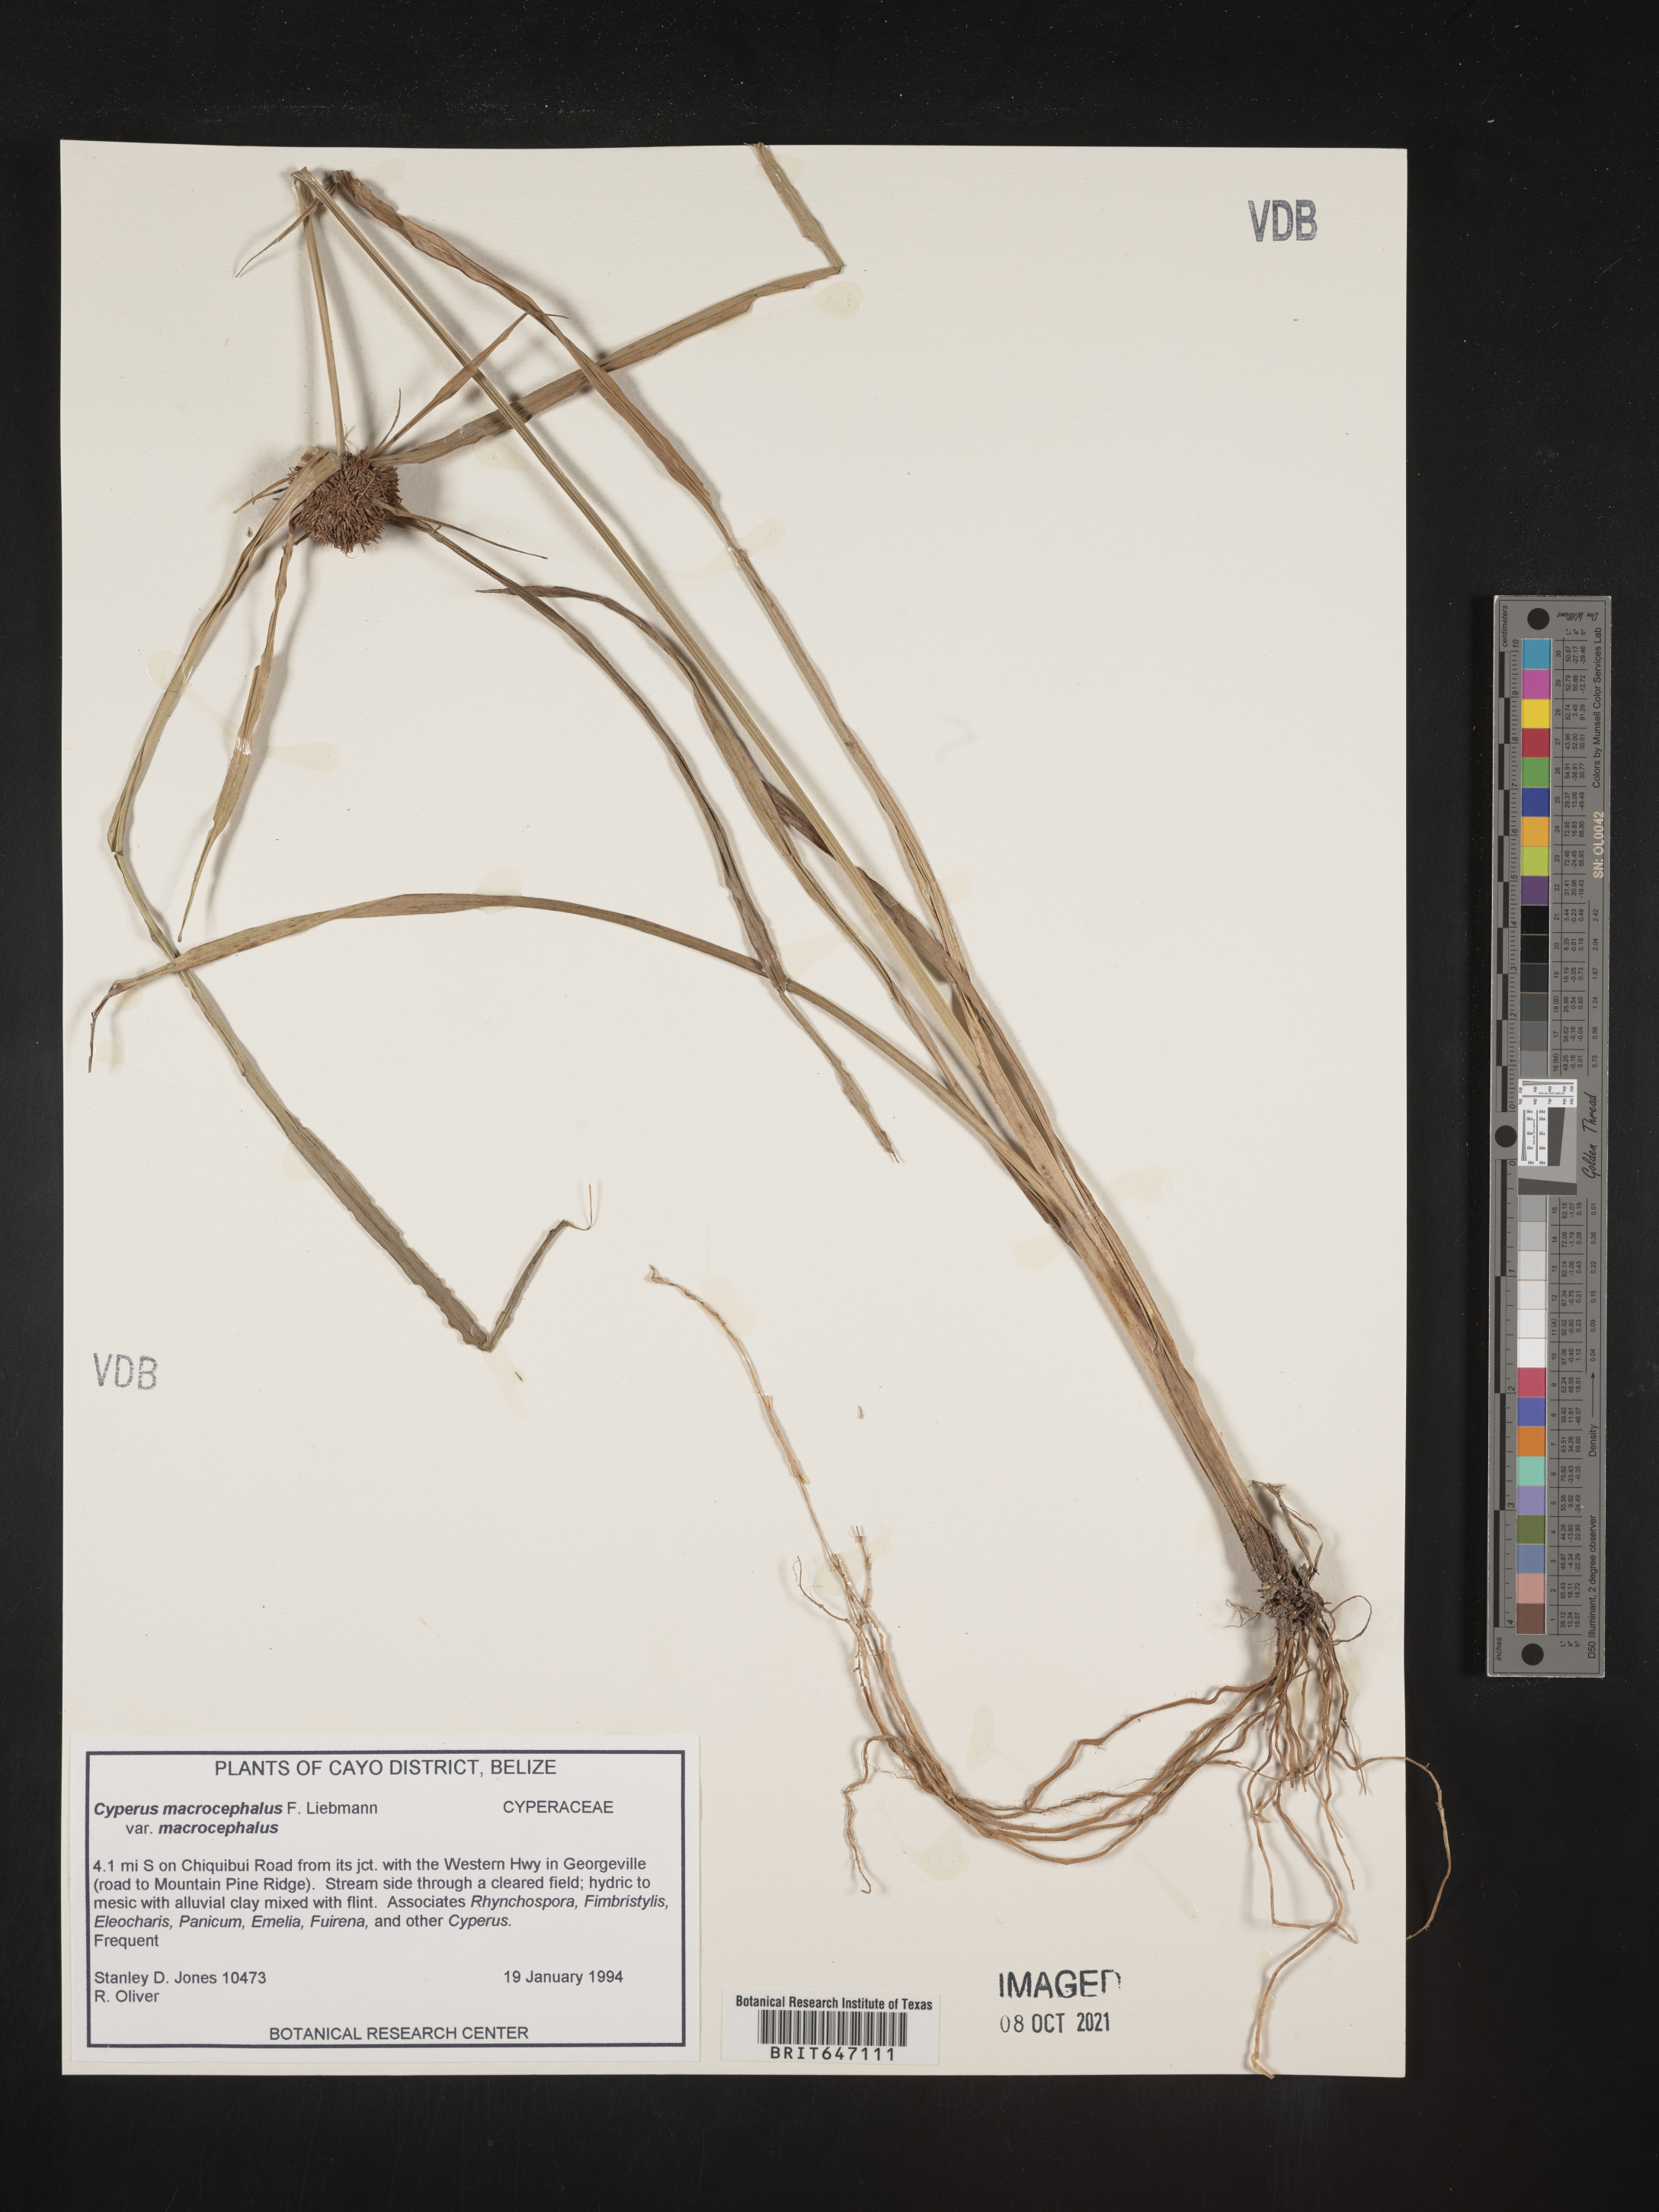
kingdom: Plantae
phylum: Tracheophyta
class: Liliopsida
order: Poales
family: Cyperaceae
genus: Cyperus
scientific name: Cyperus microcephalus
